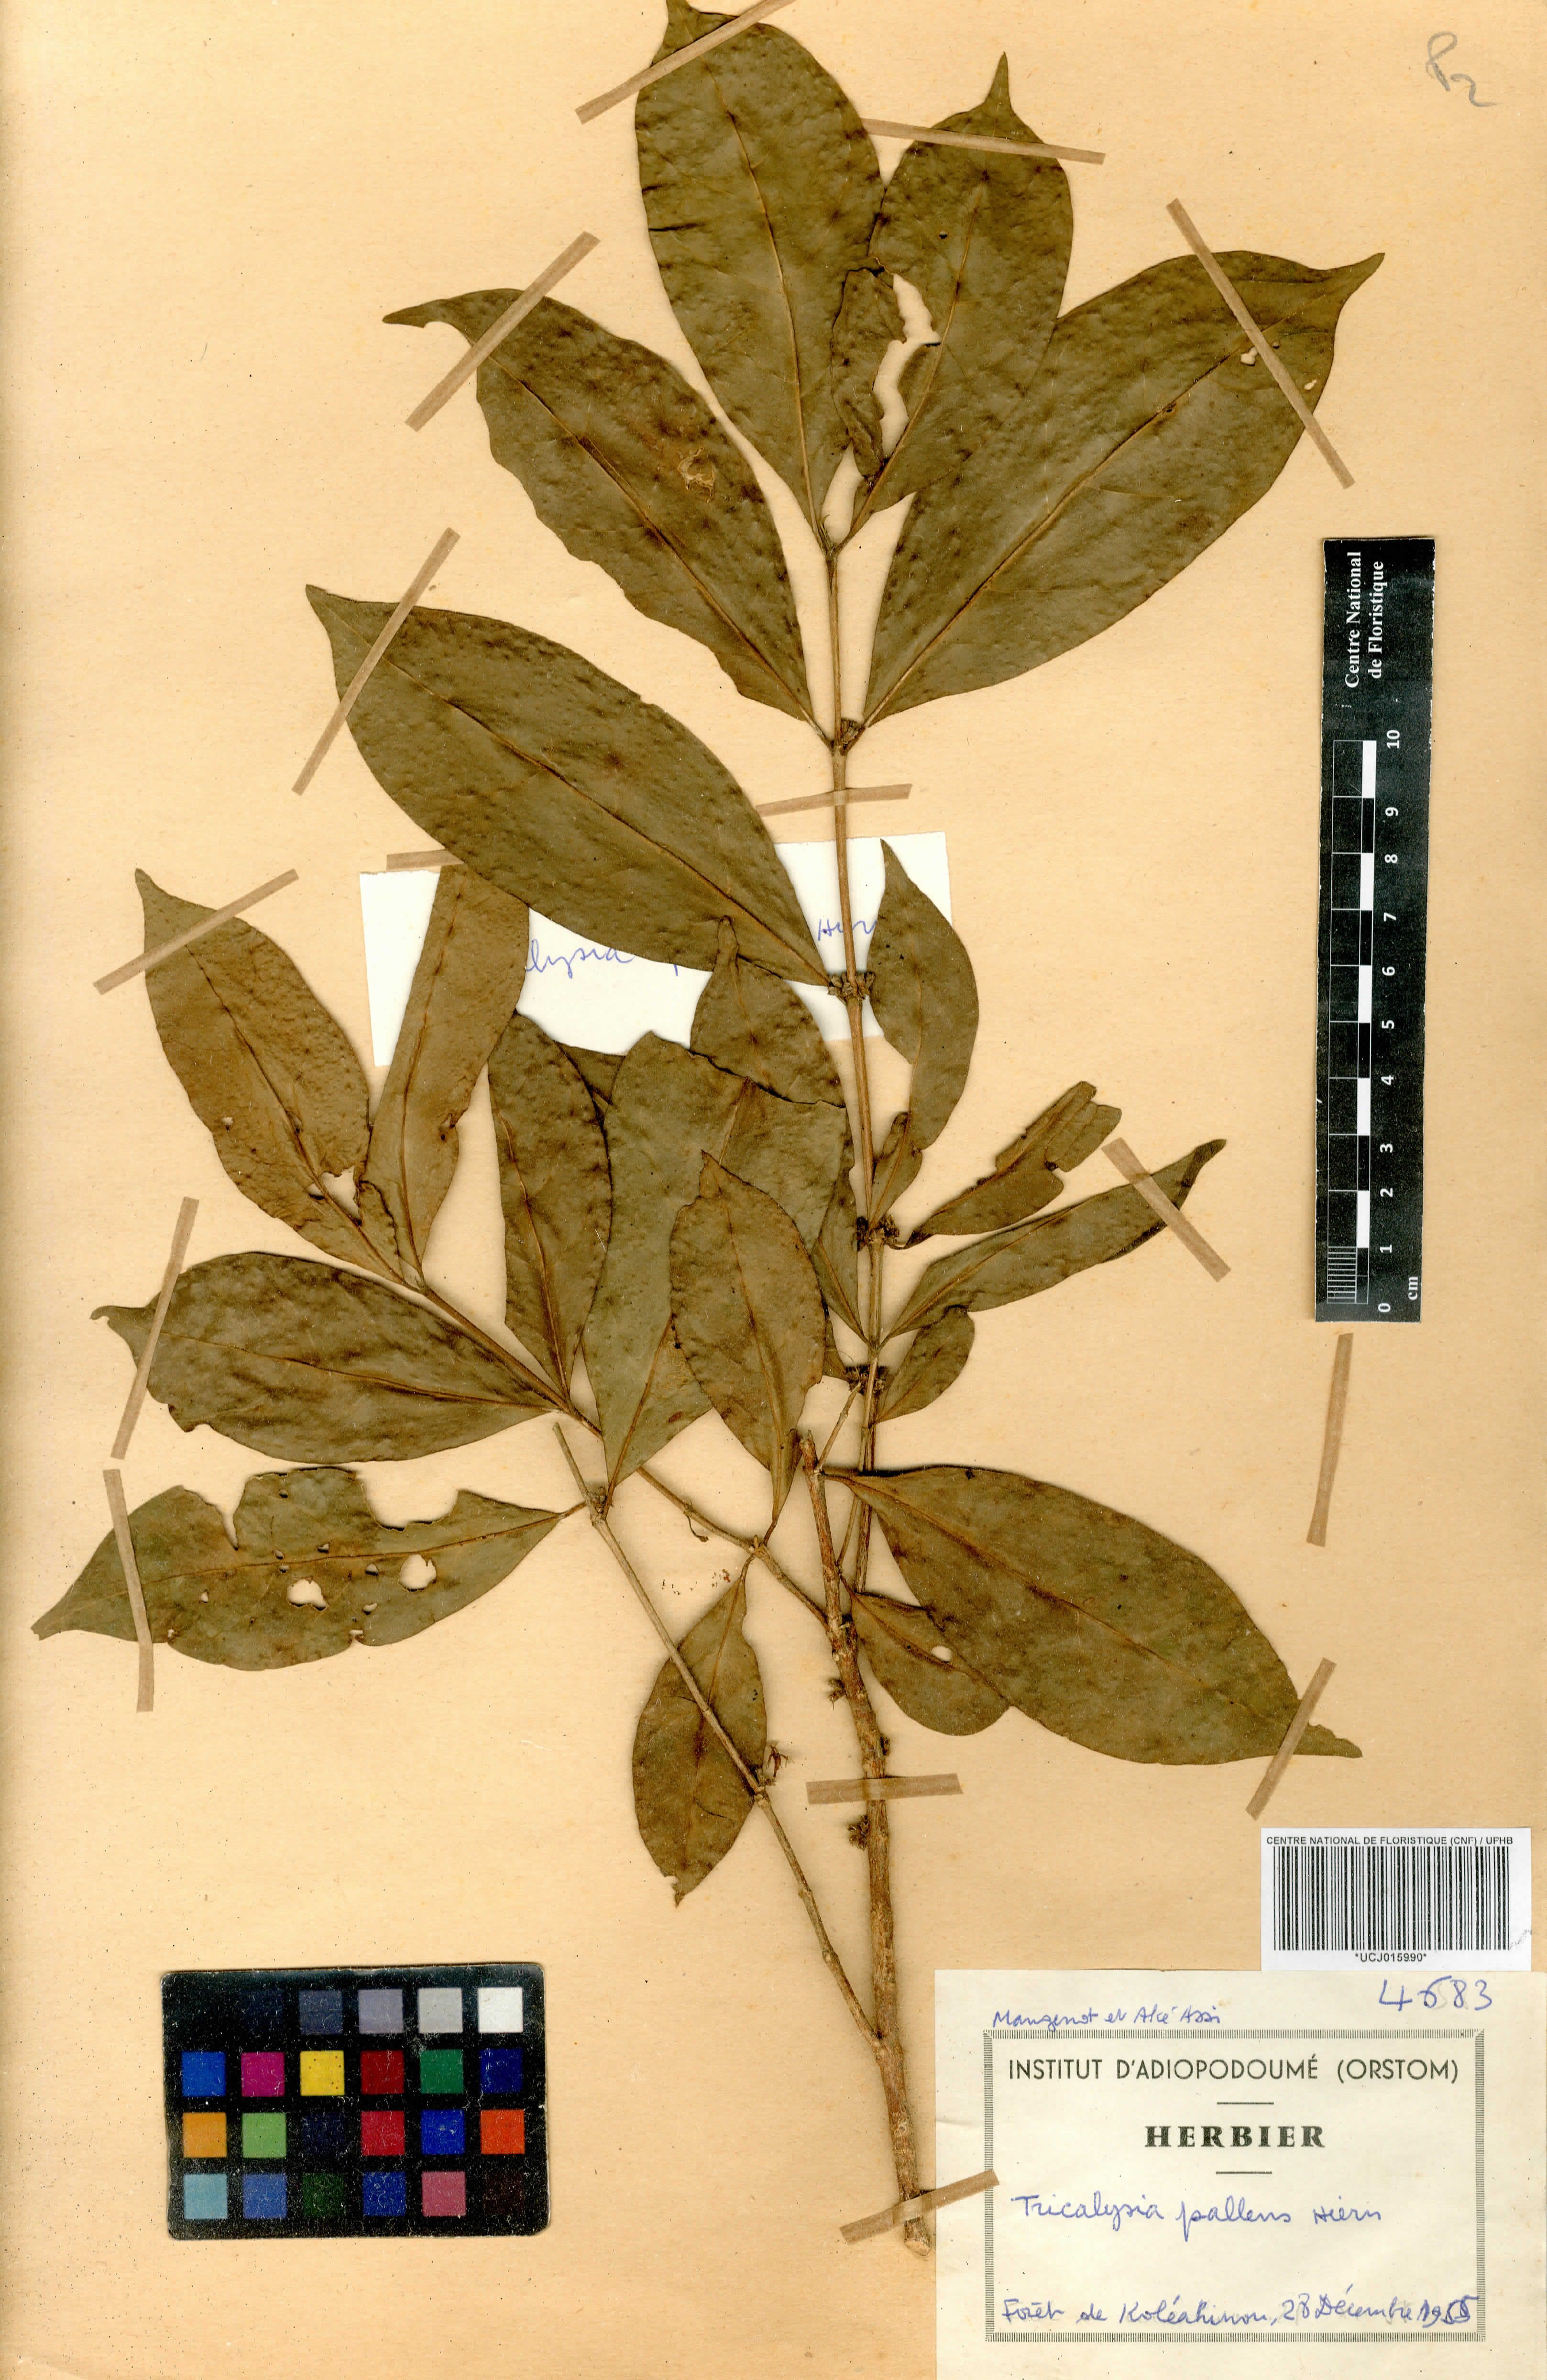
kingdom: Plantae
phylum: Tracheophyta
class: Magnoliopsida
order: Gentianales
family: Rubiaceae
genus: Tricalysia
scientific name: Tricalysia pallens
